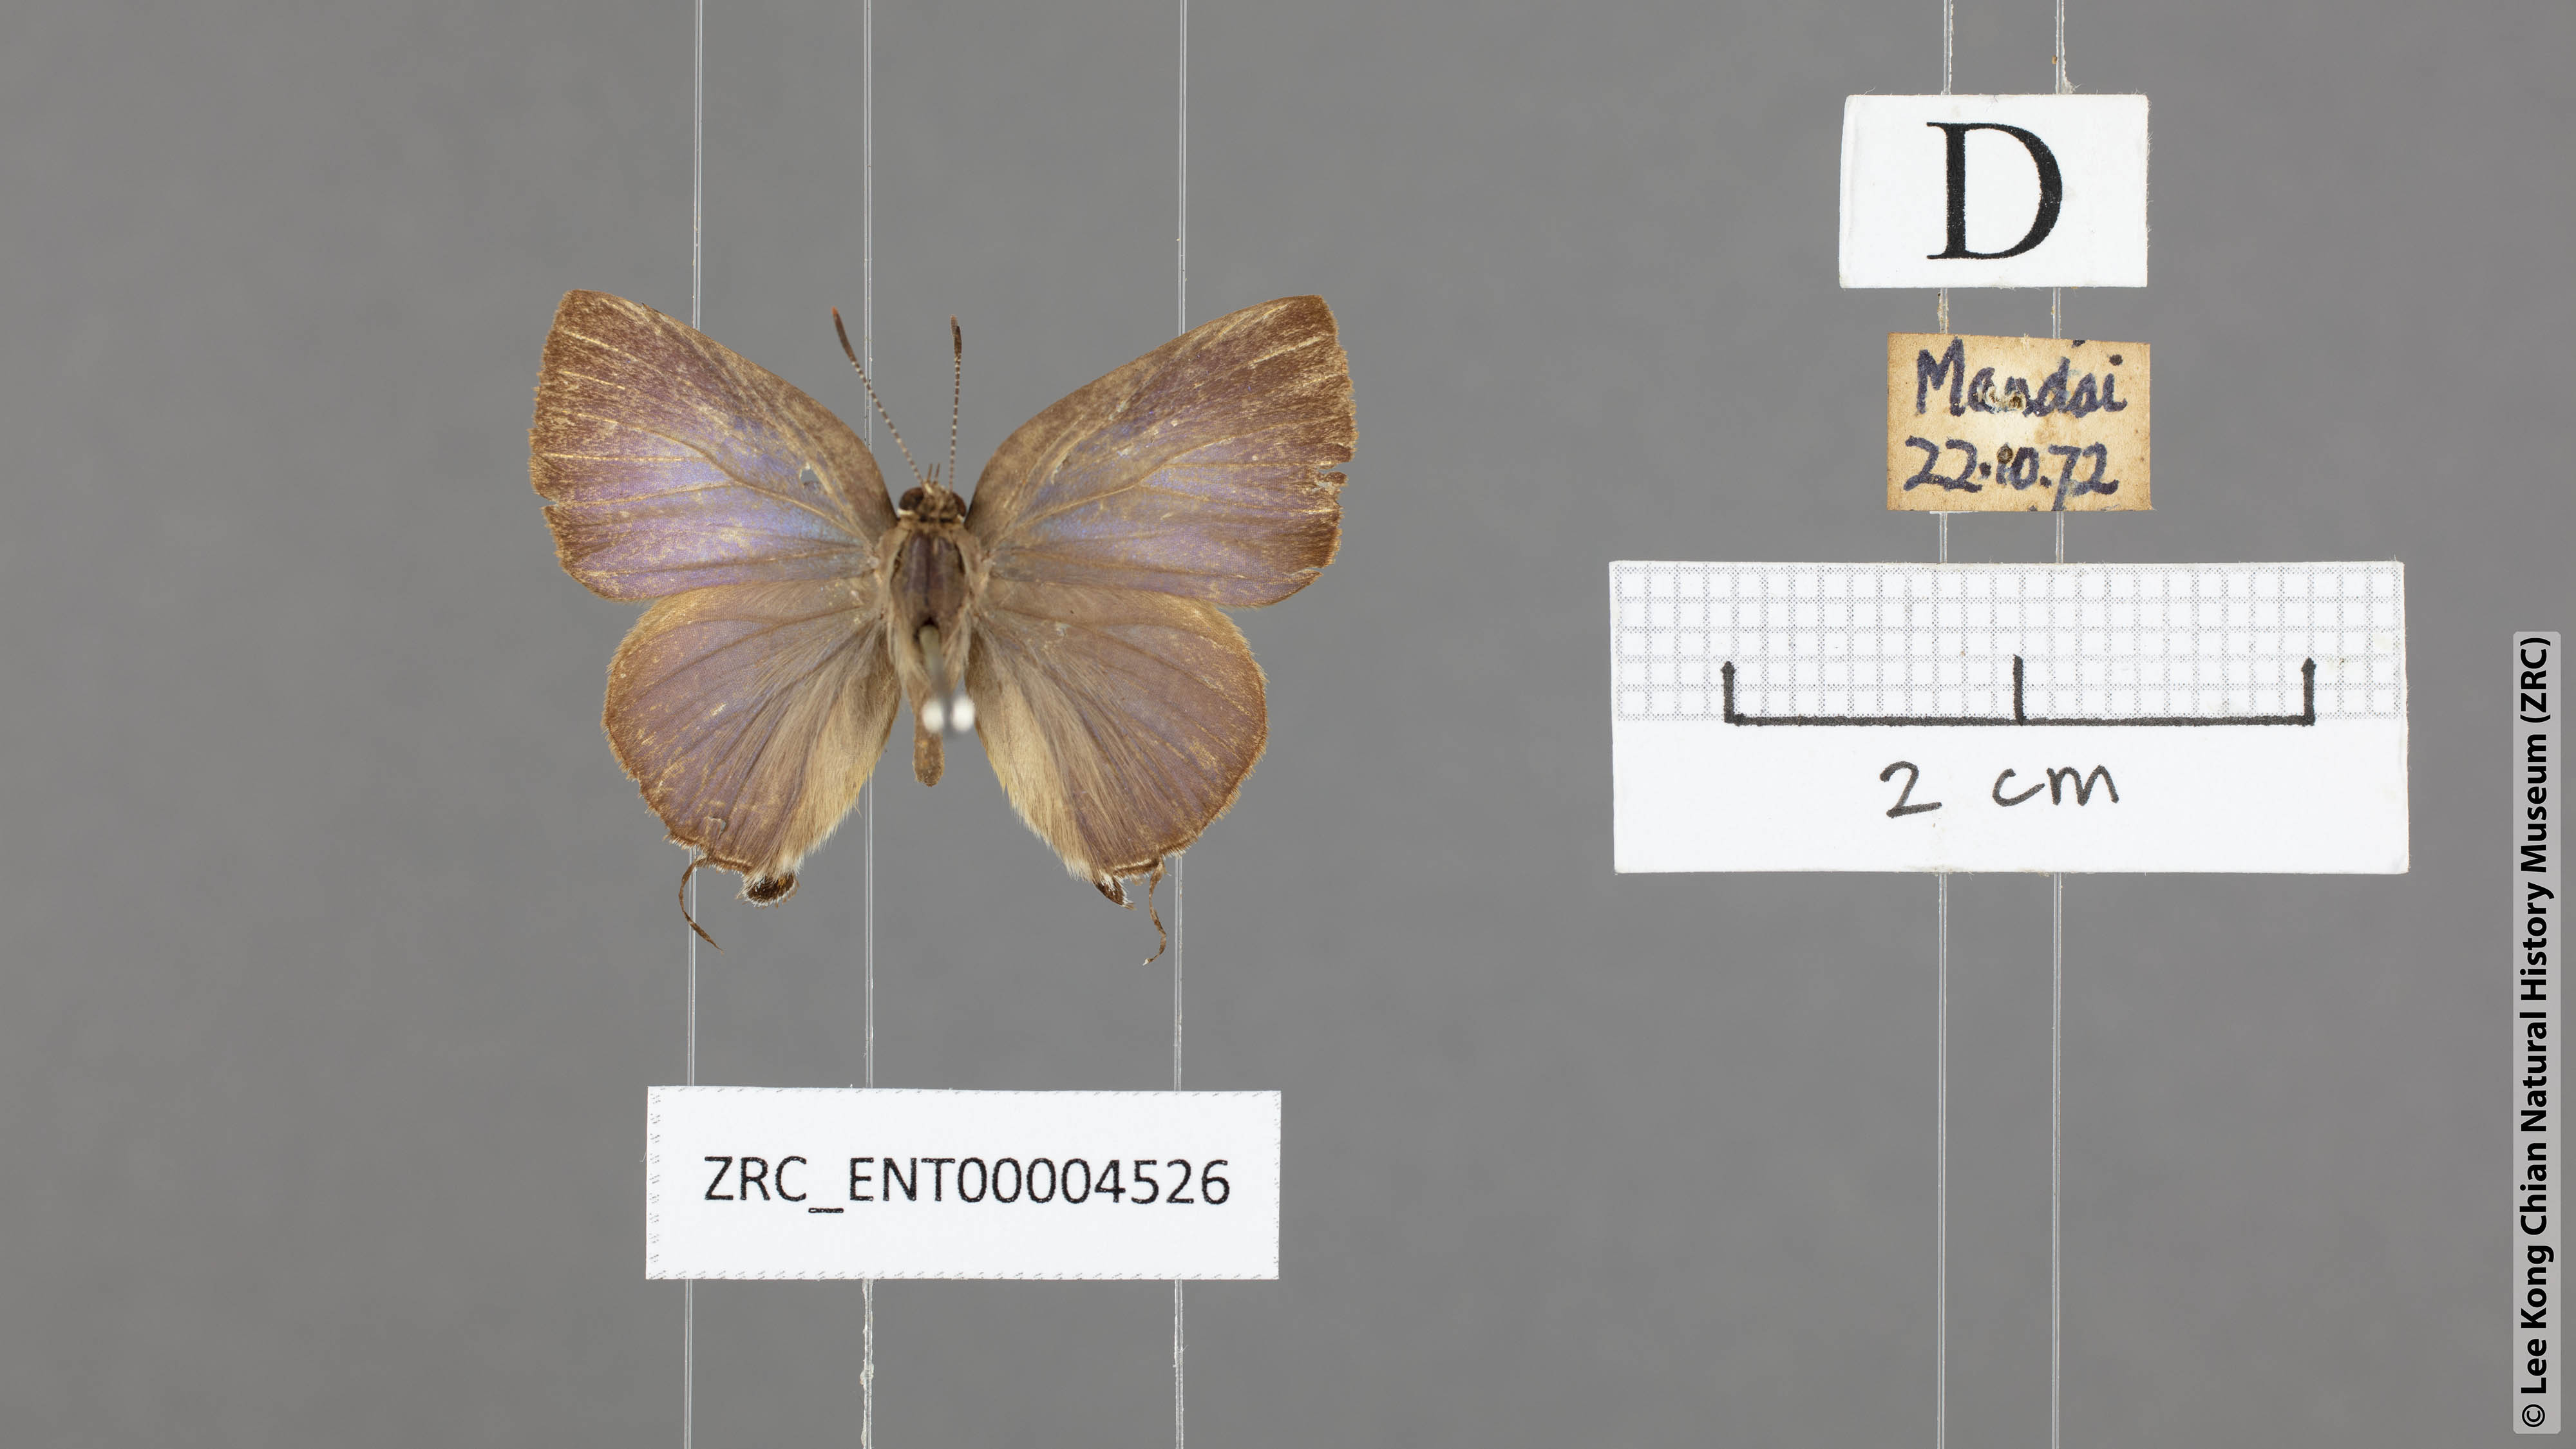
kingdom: Animalia
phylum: Arthropoda
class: Insecta
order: Lepidoptera
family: Lycaenidae
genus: Rapala
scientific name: Rapala varuna
